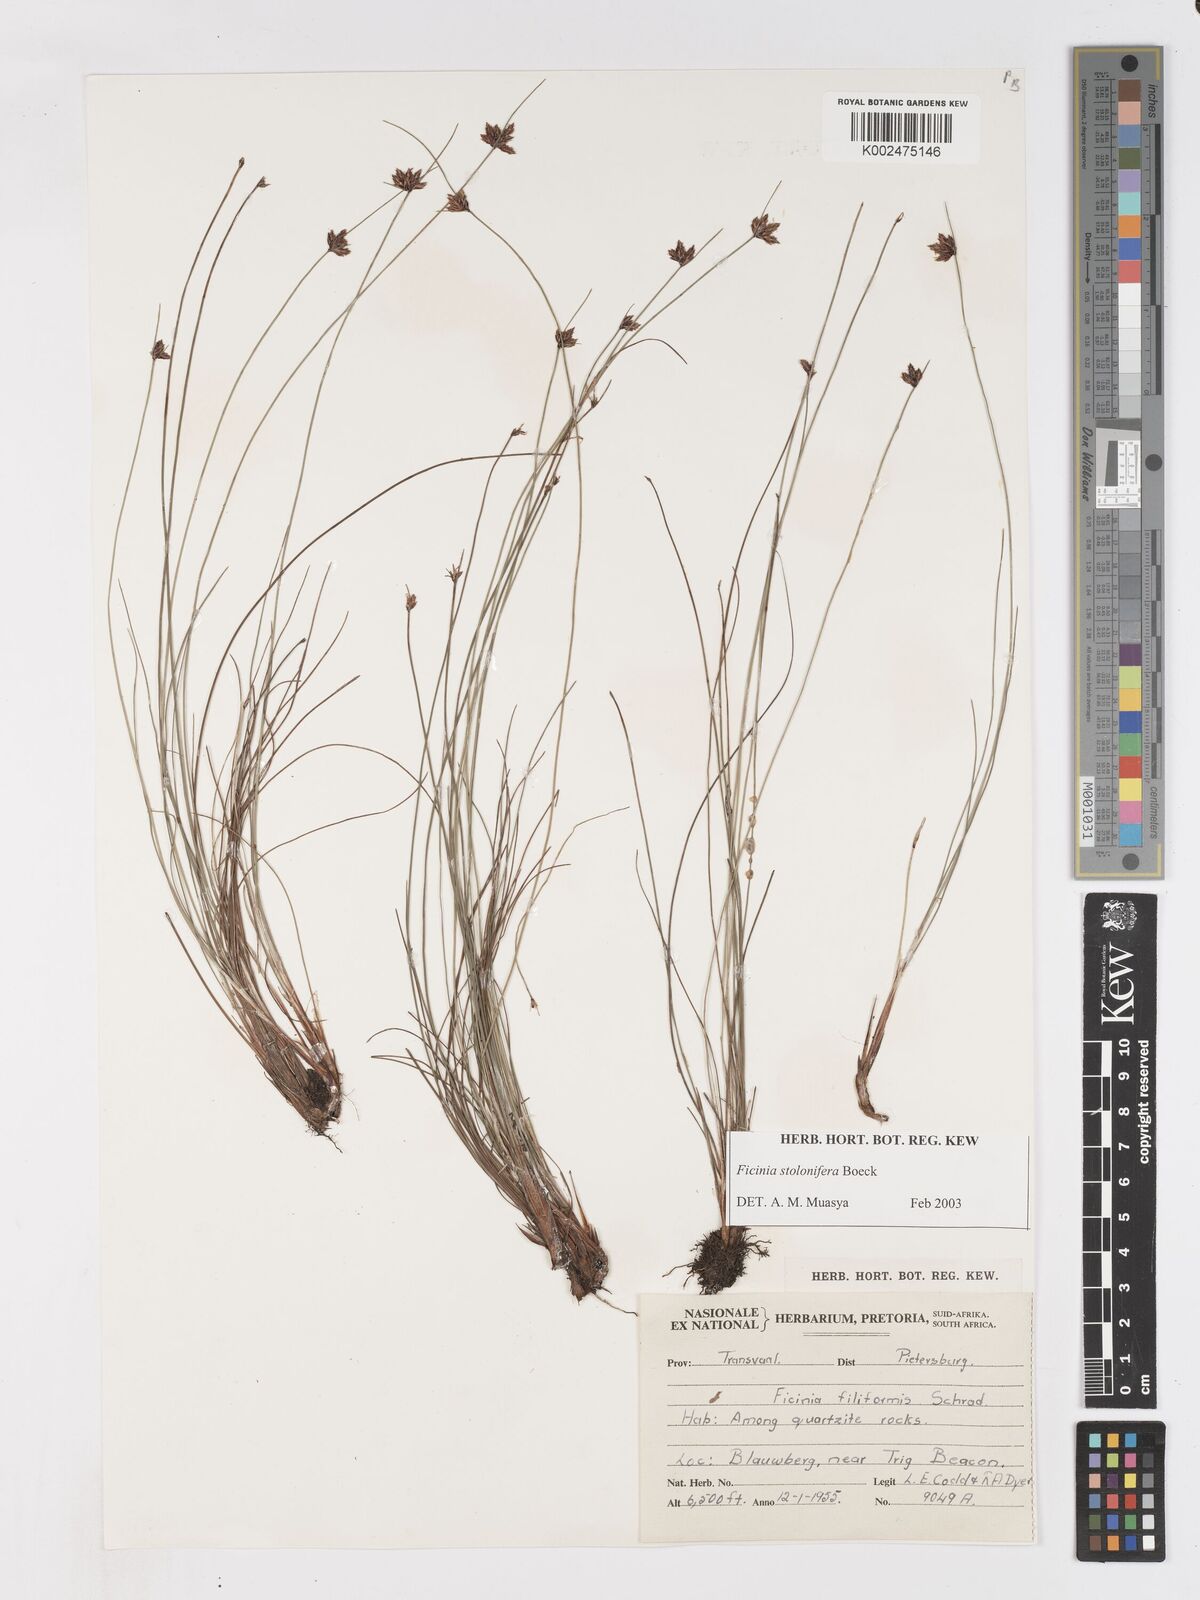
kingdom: Plantae
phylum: Tracheophyta
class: Liliopsida
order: Poales
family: Cyperaceae
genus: Ficinia
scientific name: Ficinia stolonifera
